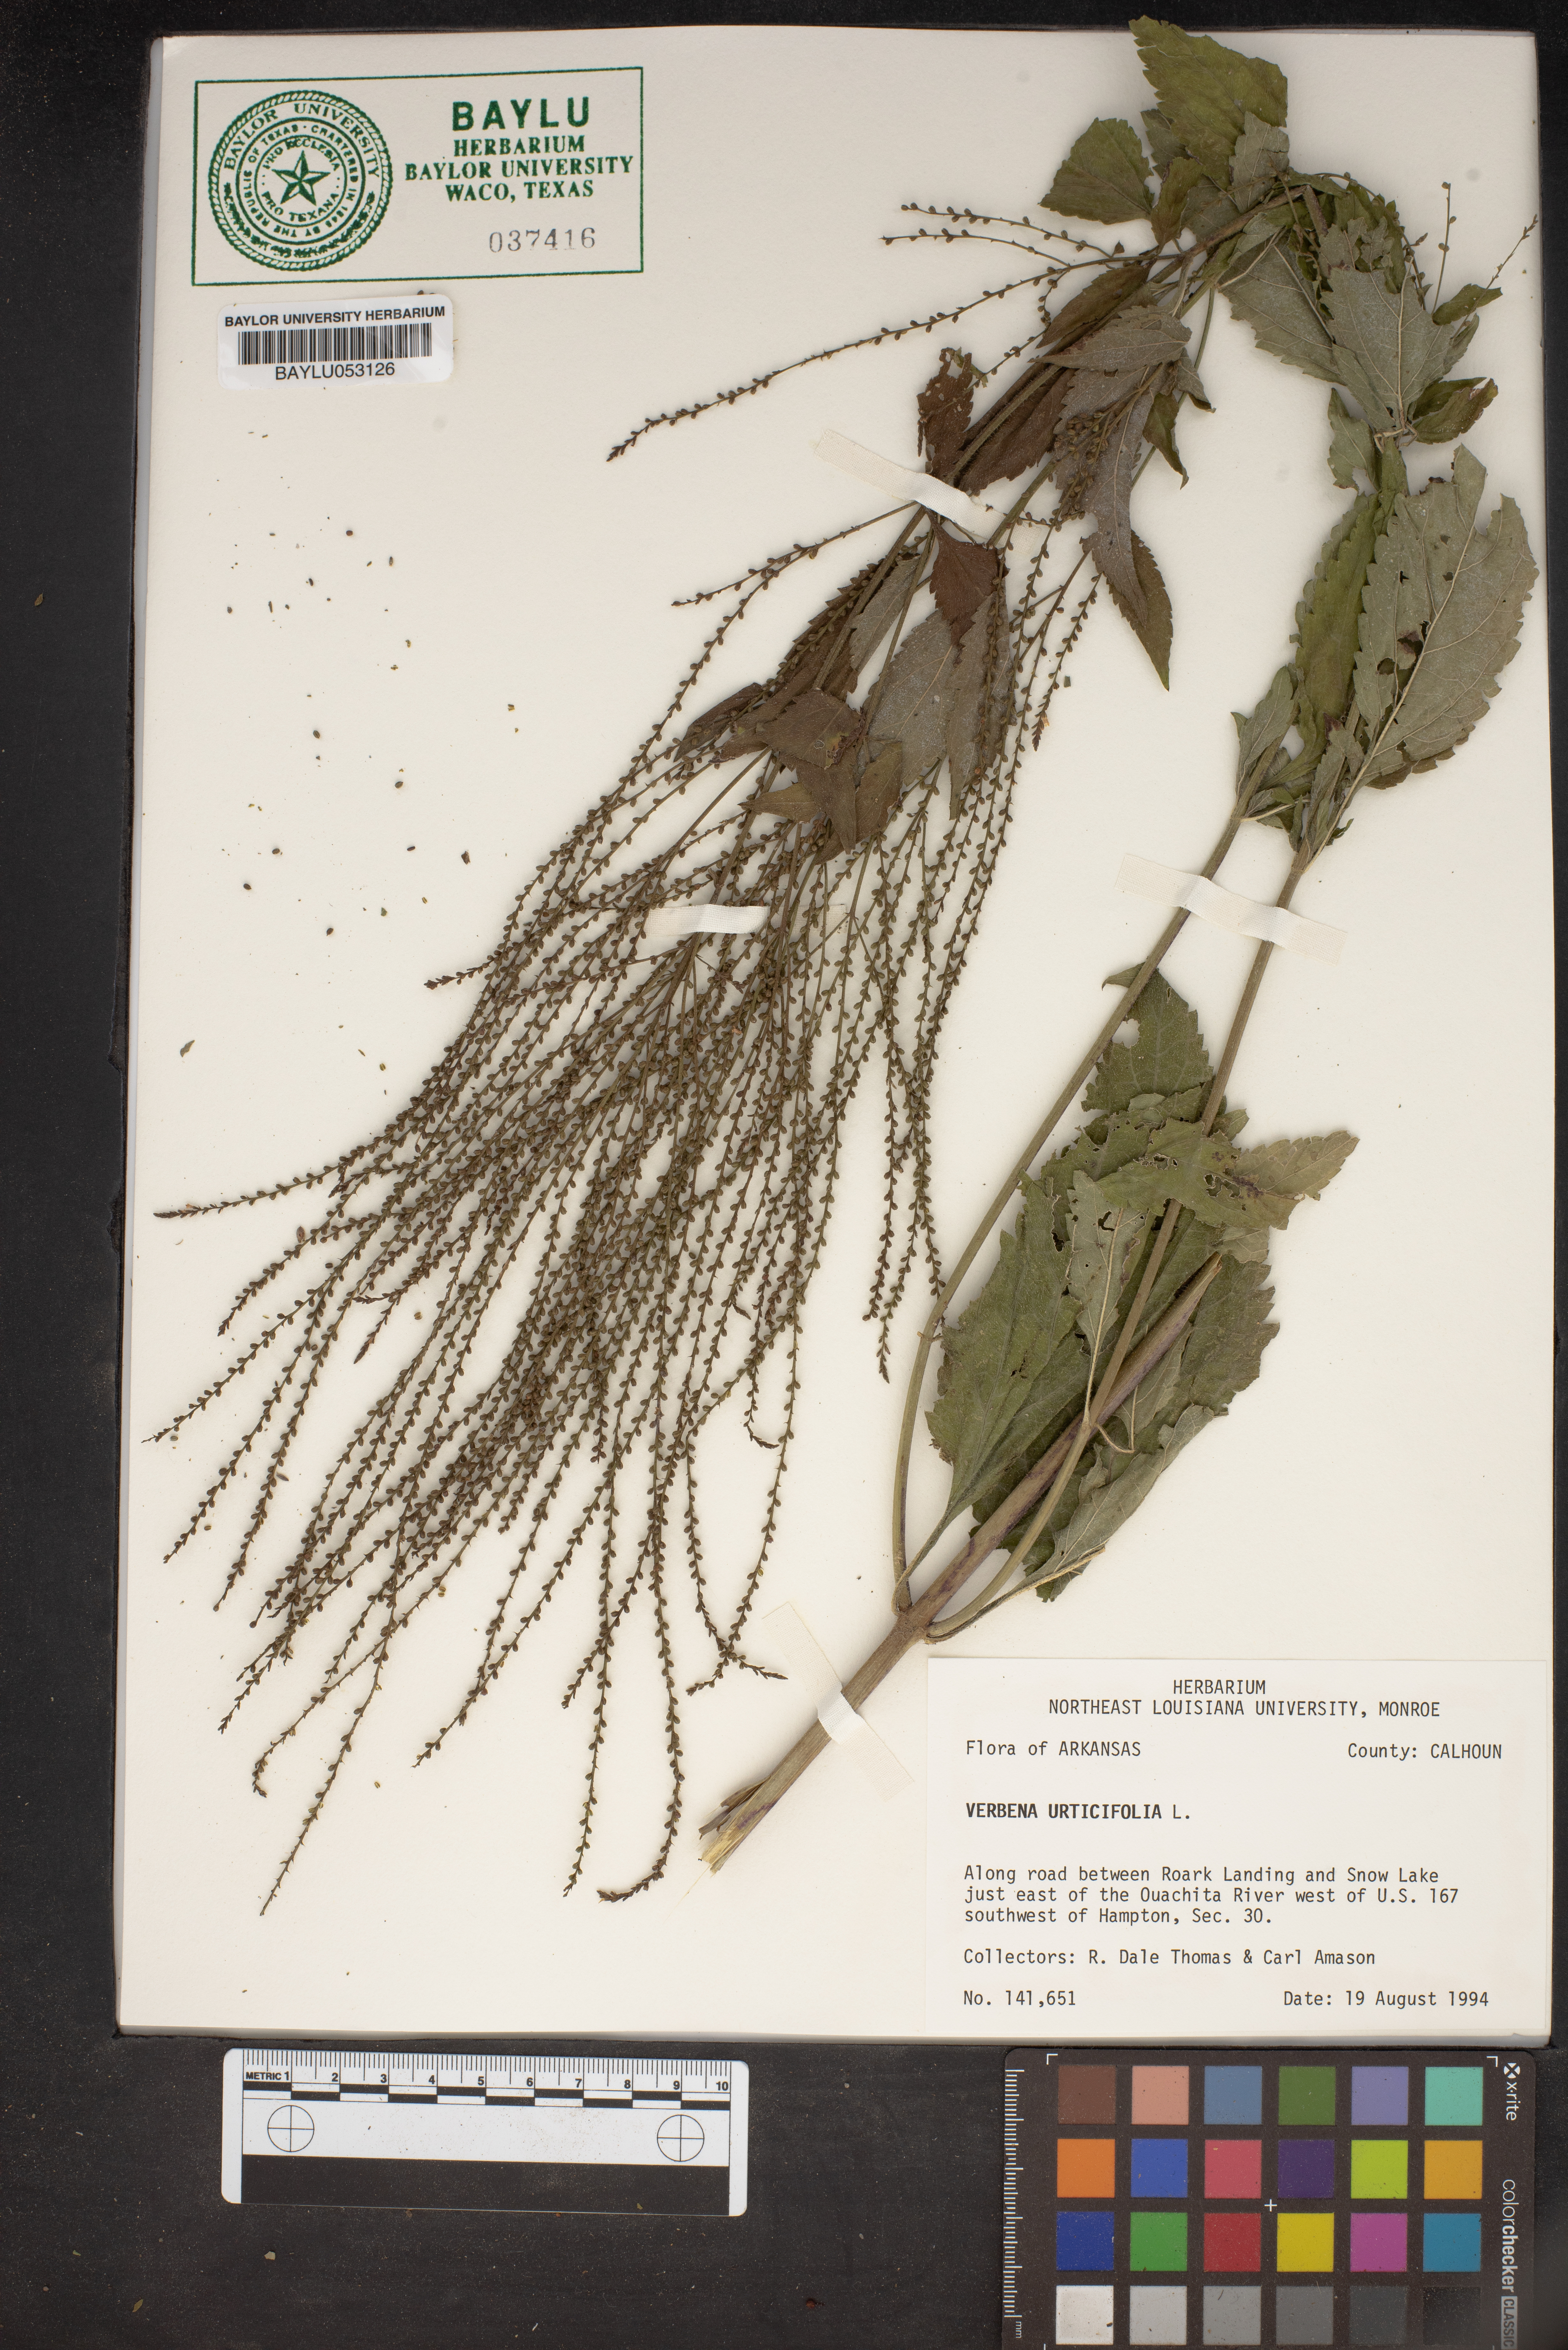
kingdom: Plantae
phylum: Tracheophyta
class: Magnoliopsida
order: Lamiales
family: Verbenaceae
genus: Verbena
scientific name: Verbena urticifolia
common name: Nettle-leaved vervain
